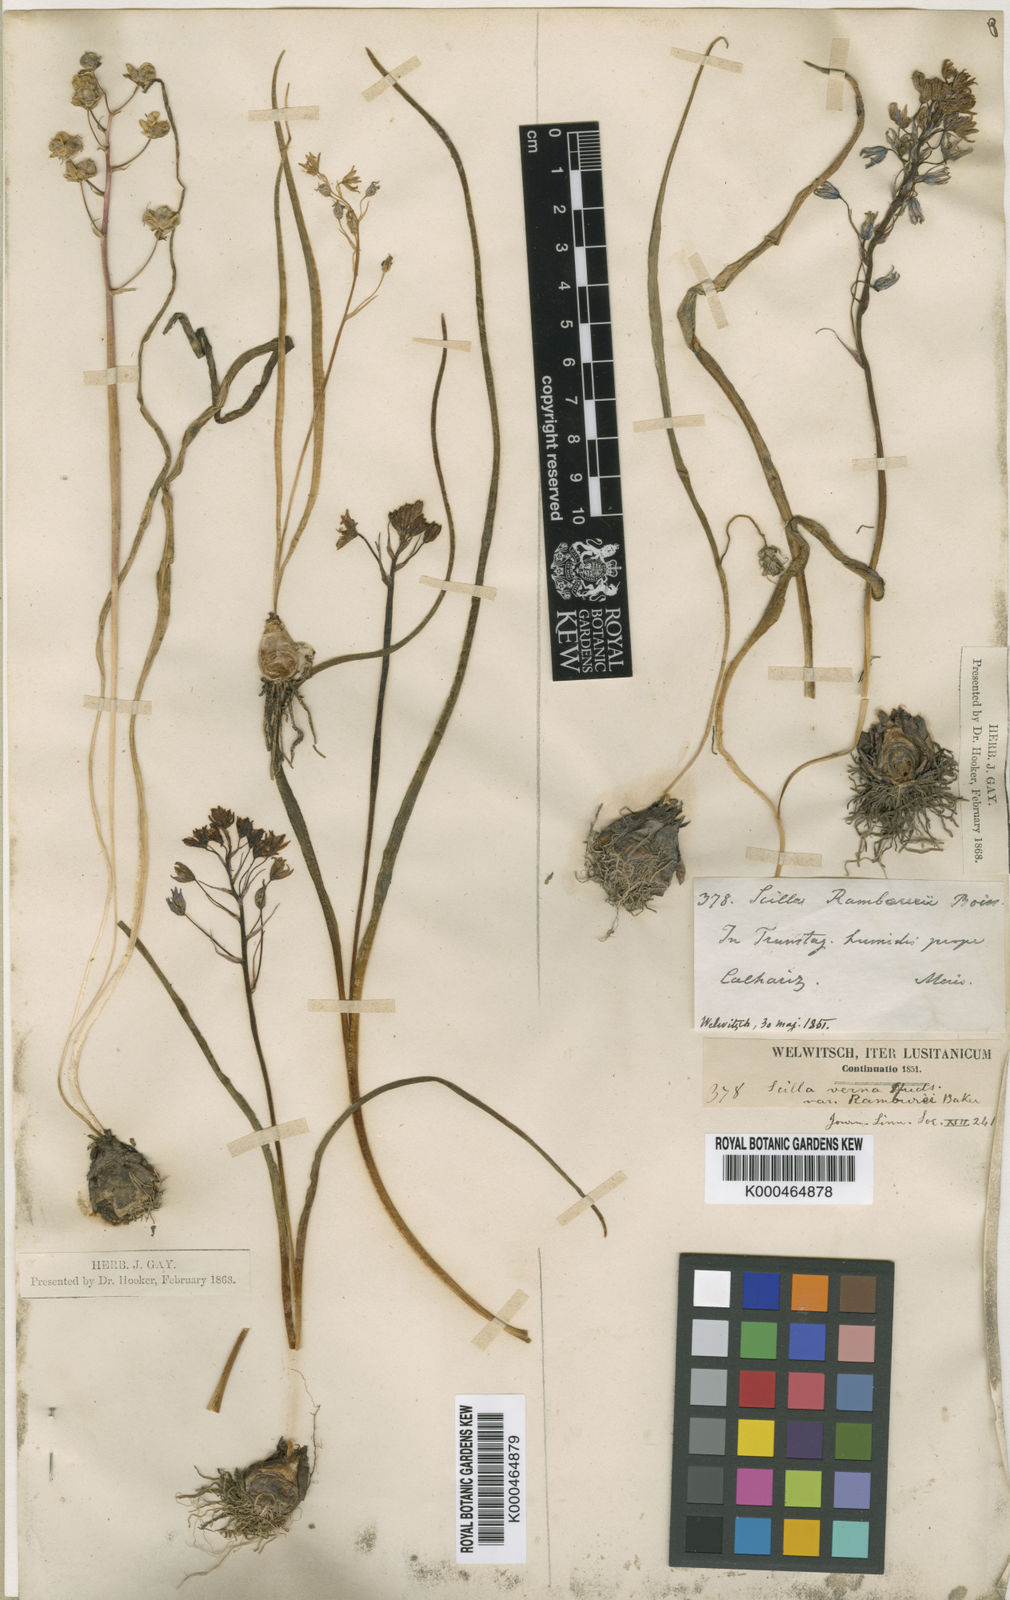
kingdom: Plantae
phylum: Tracheophyta
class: Liliopsida
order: Asparagales
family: Asparagaceae
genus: Scilla
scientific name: Scilla verna
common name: Spring squill
